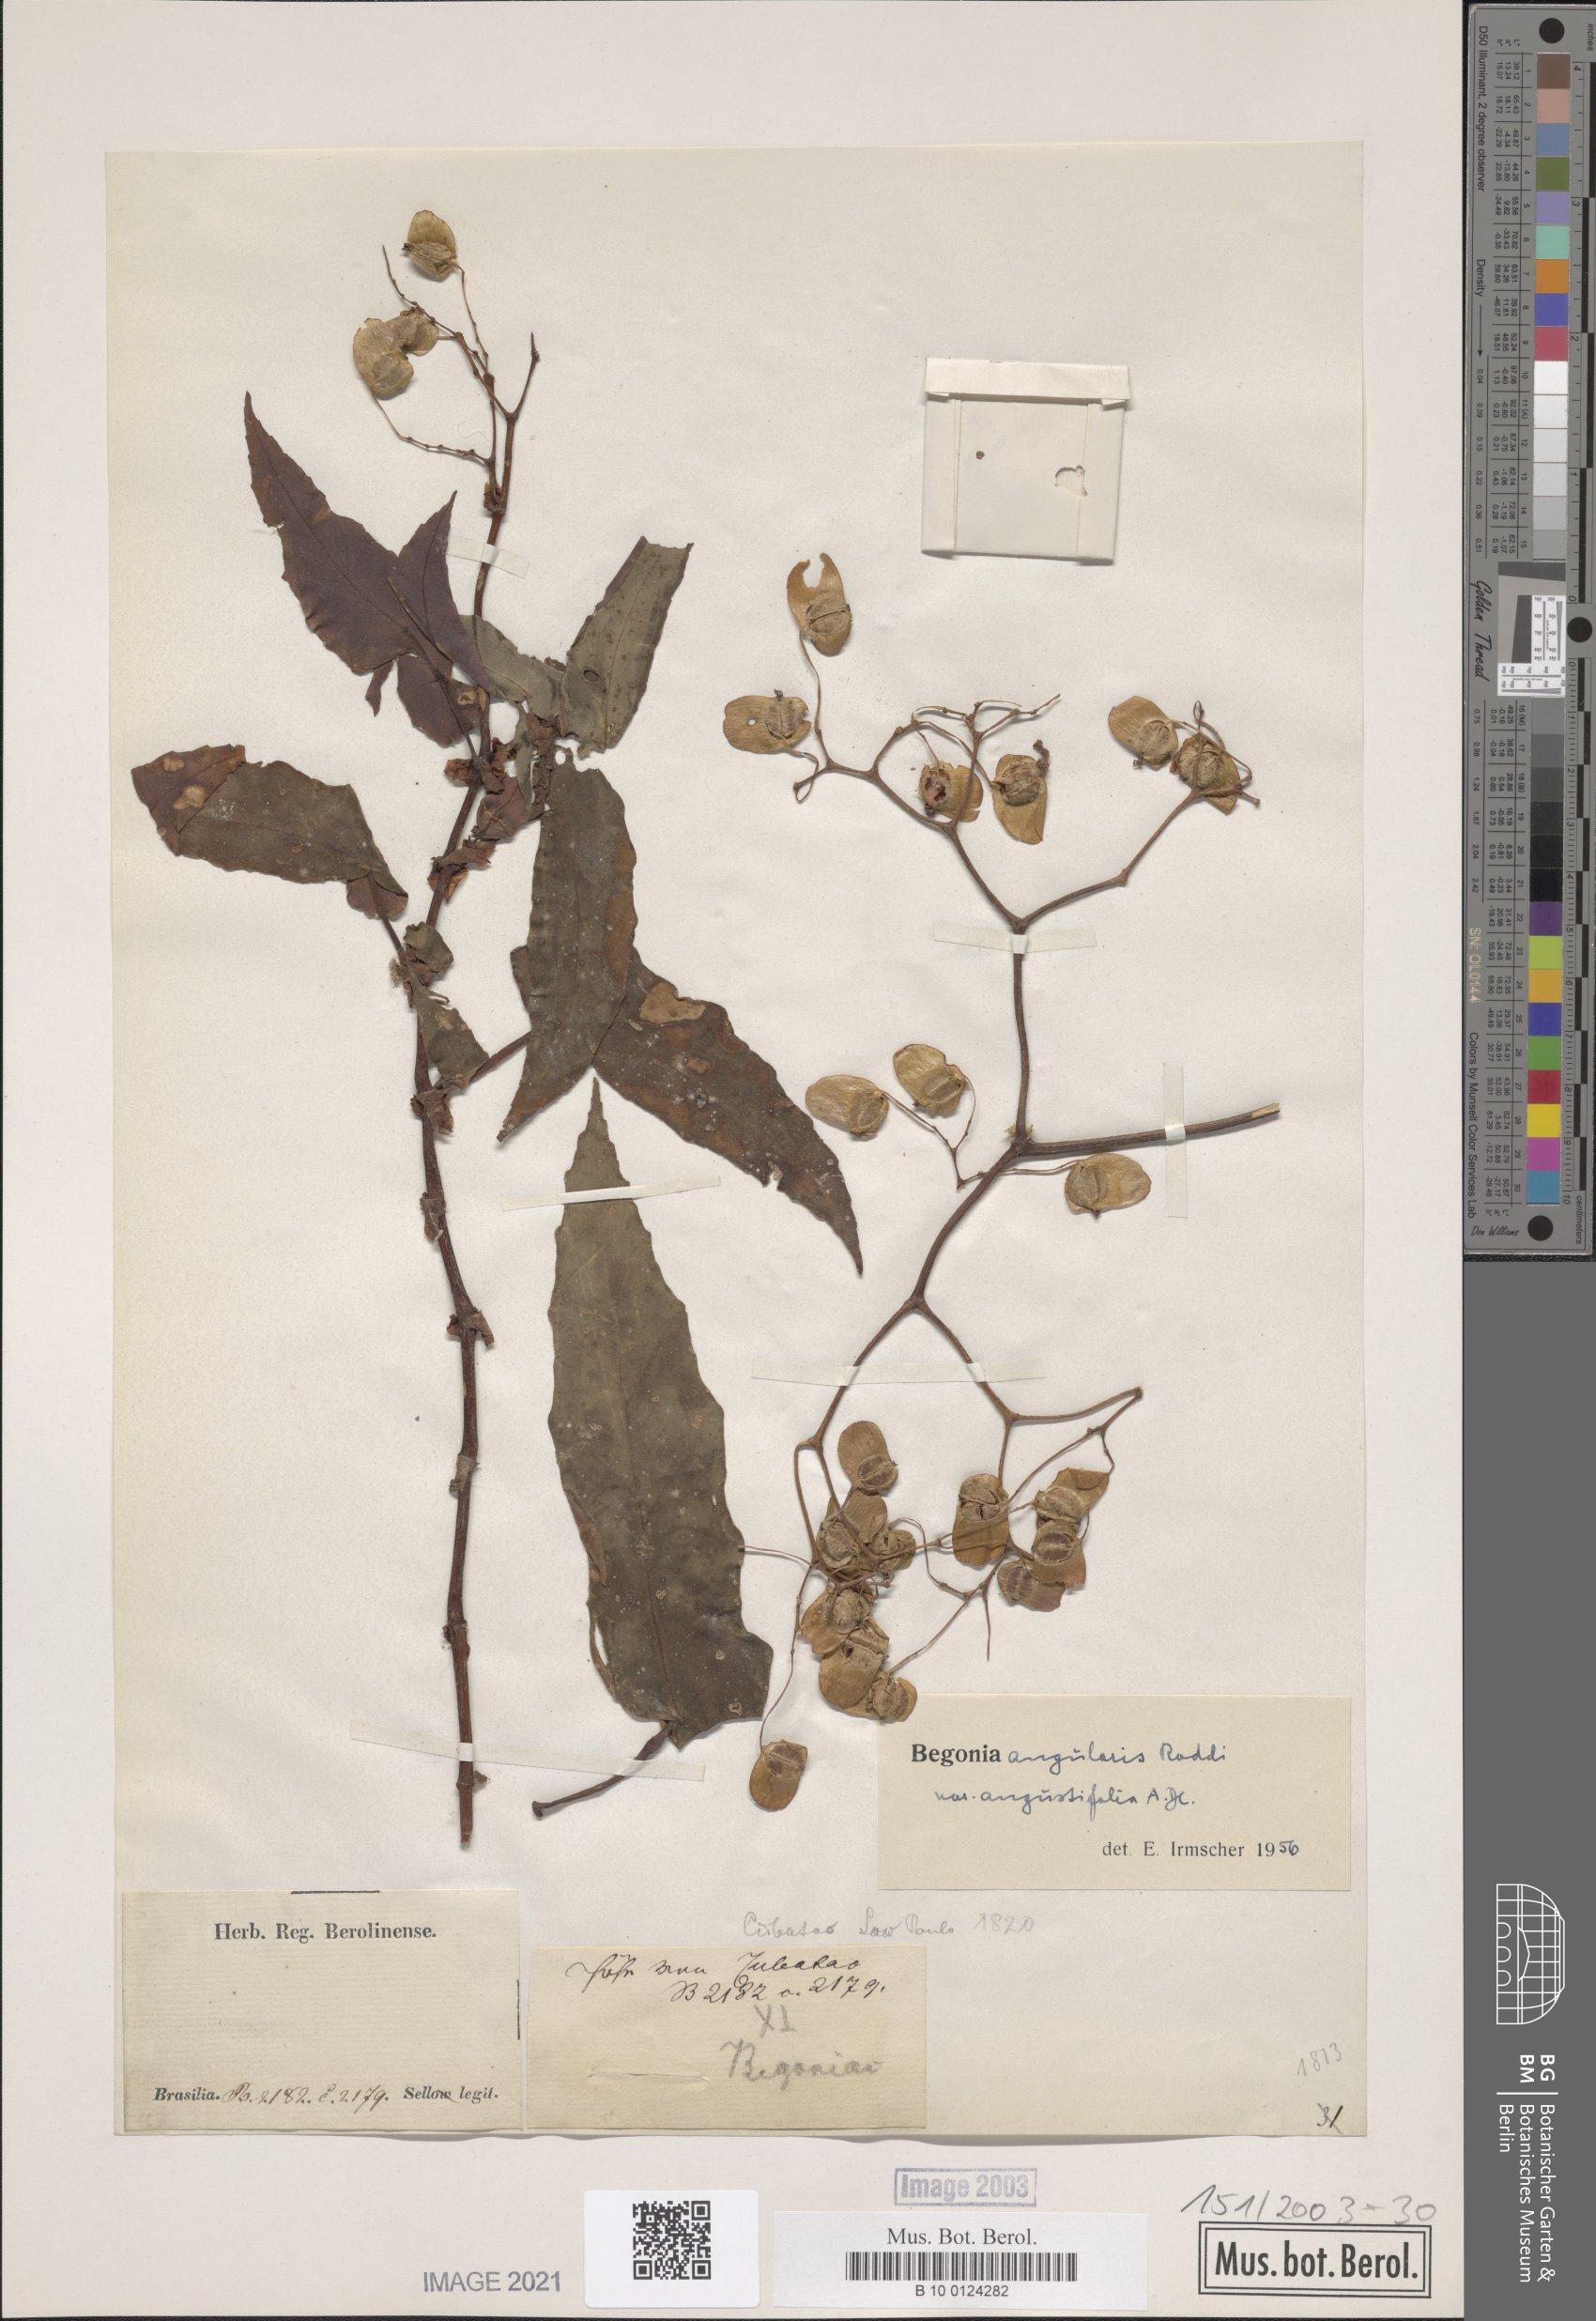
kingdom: Plantae
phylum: Tracheophyta
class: Magnoliopsida
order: Cucurbitales
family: Begoniaceae
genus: Begonia
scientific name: Begonia angularis
